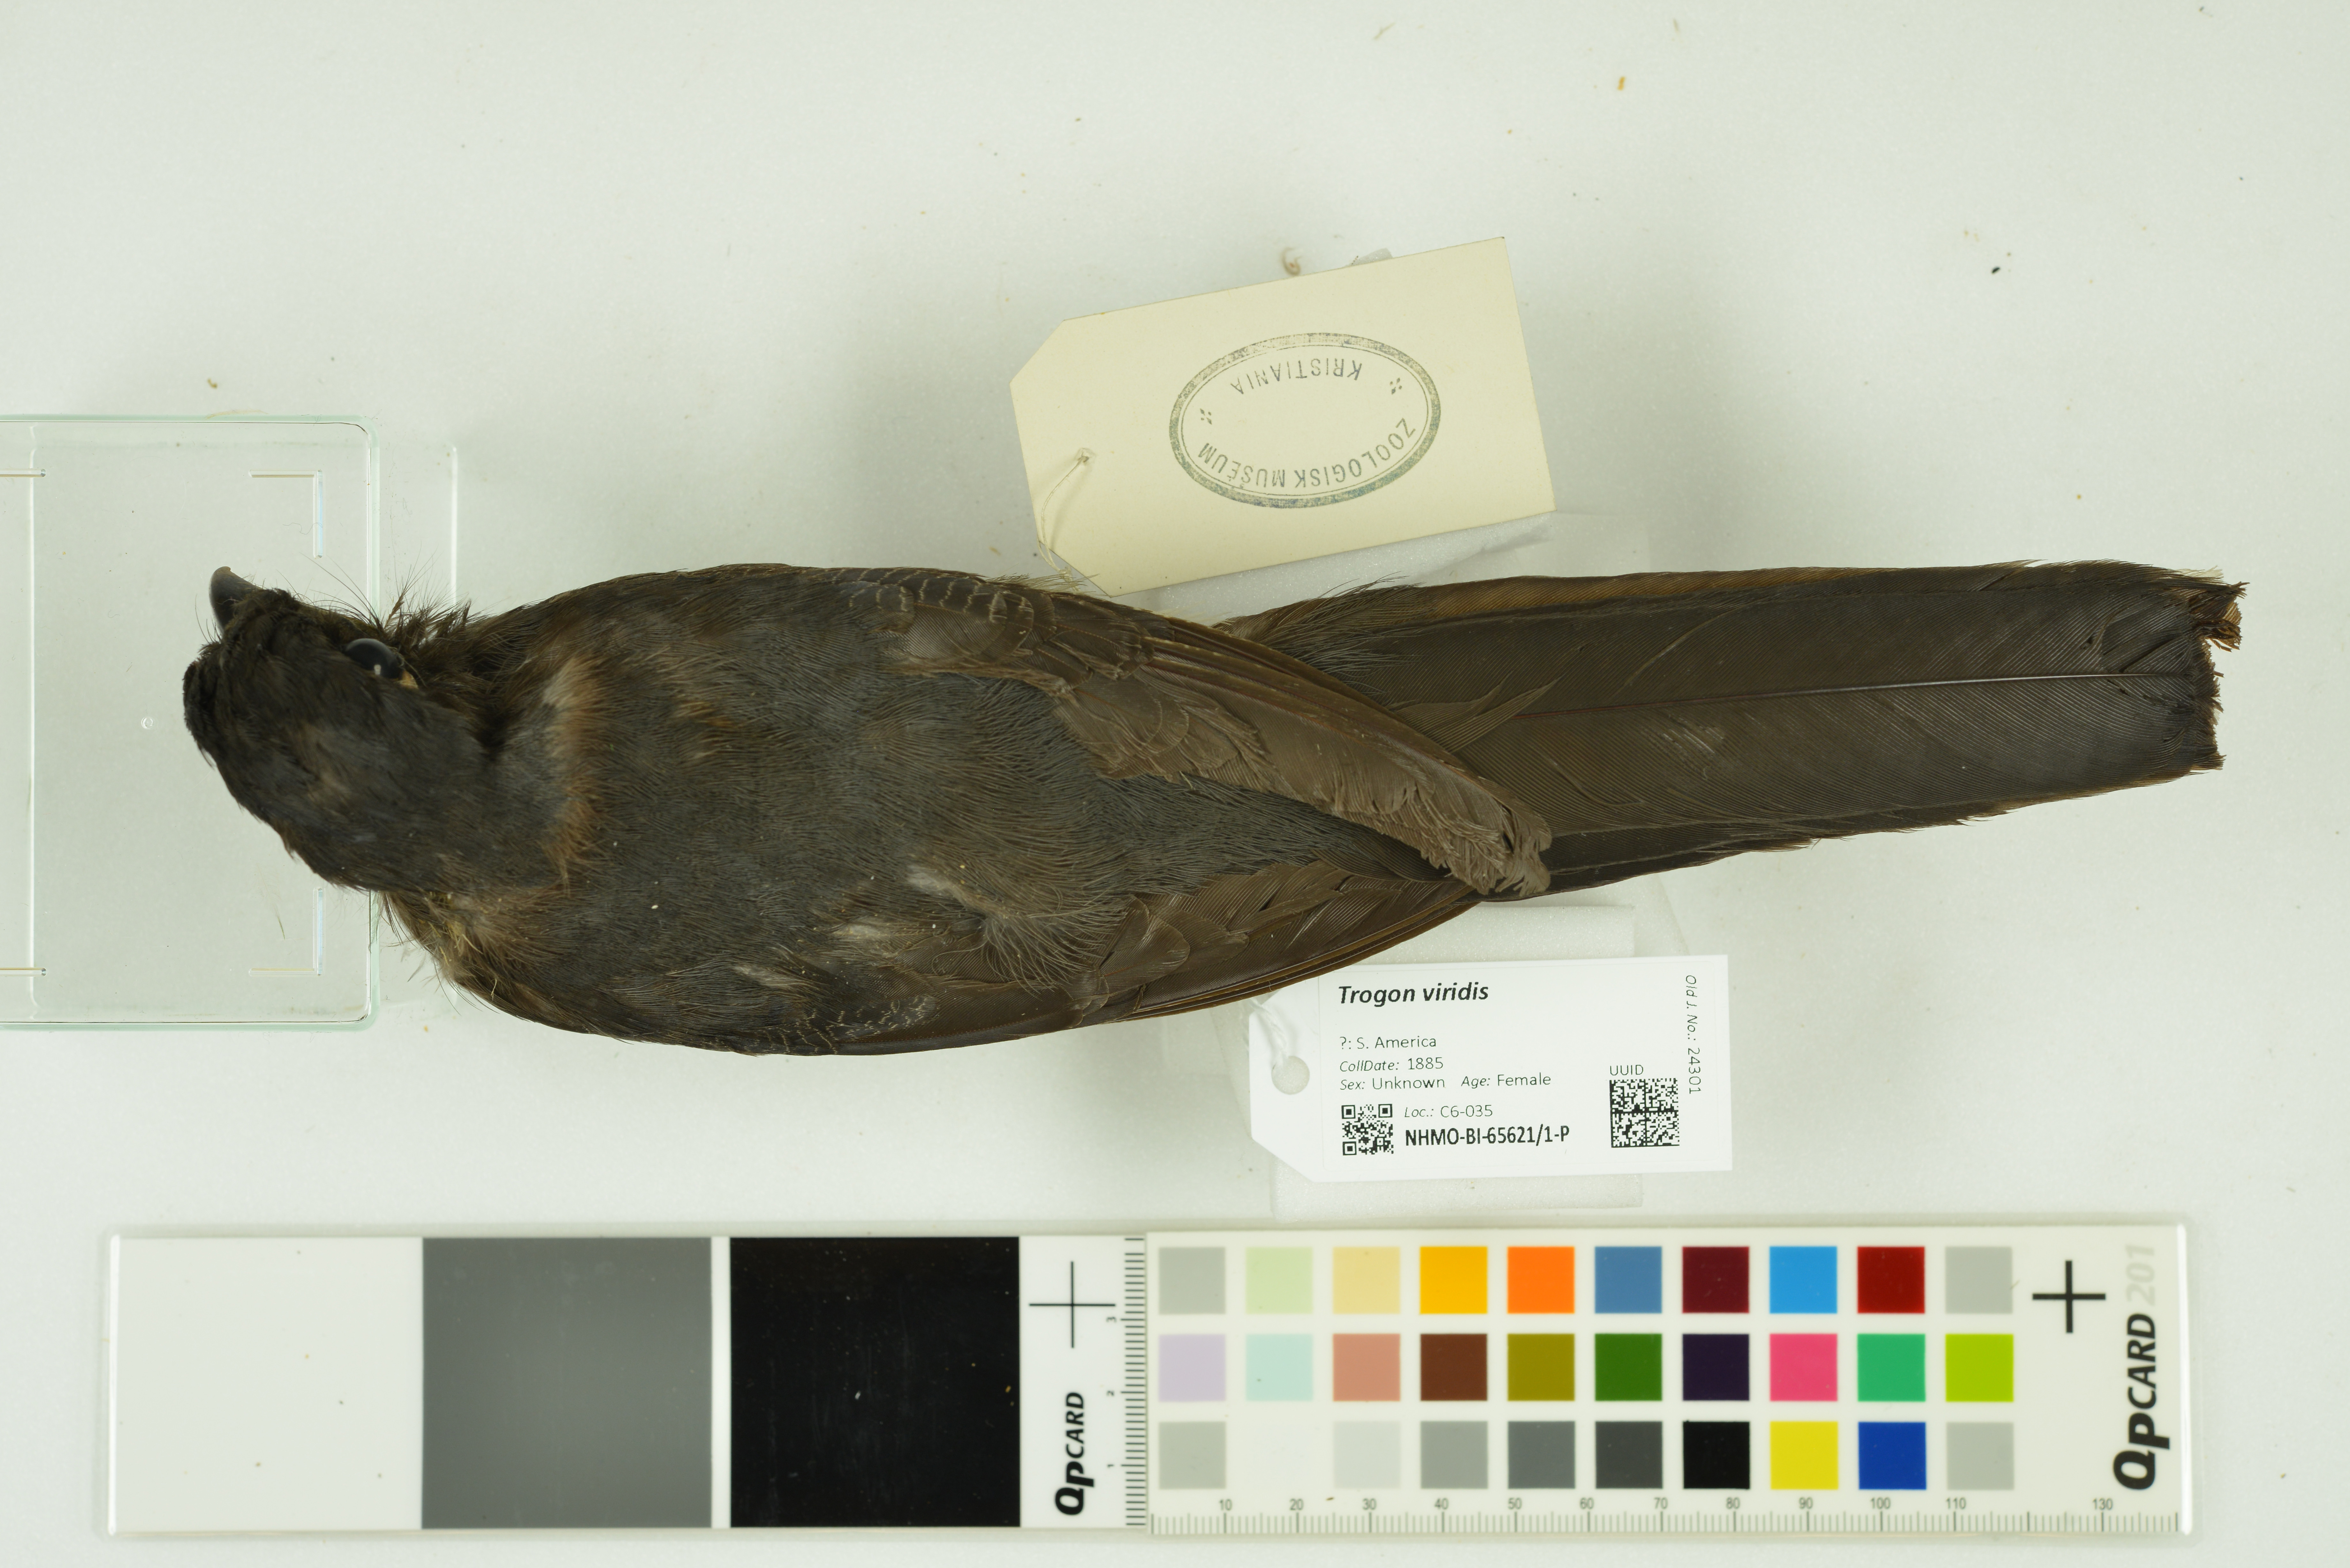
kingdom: Animalia
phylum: Chordata
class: Aves
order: Trogoniformes
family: Trogonidae
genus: Trogon
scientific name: Trogon viridis
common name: Green-backed trogon
